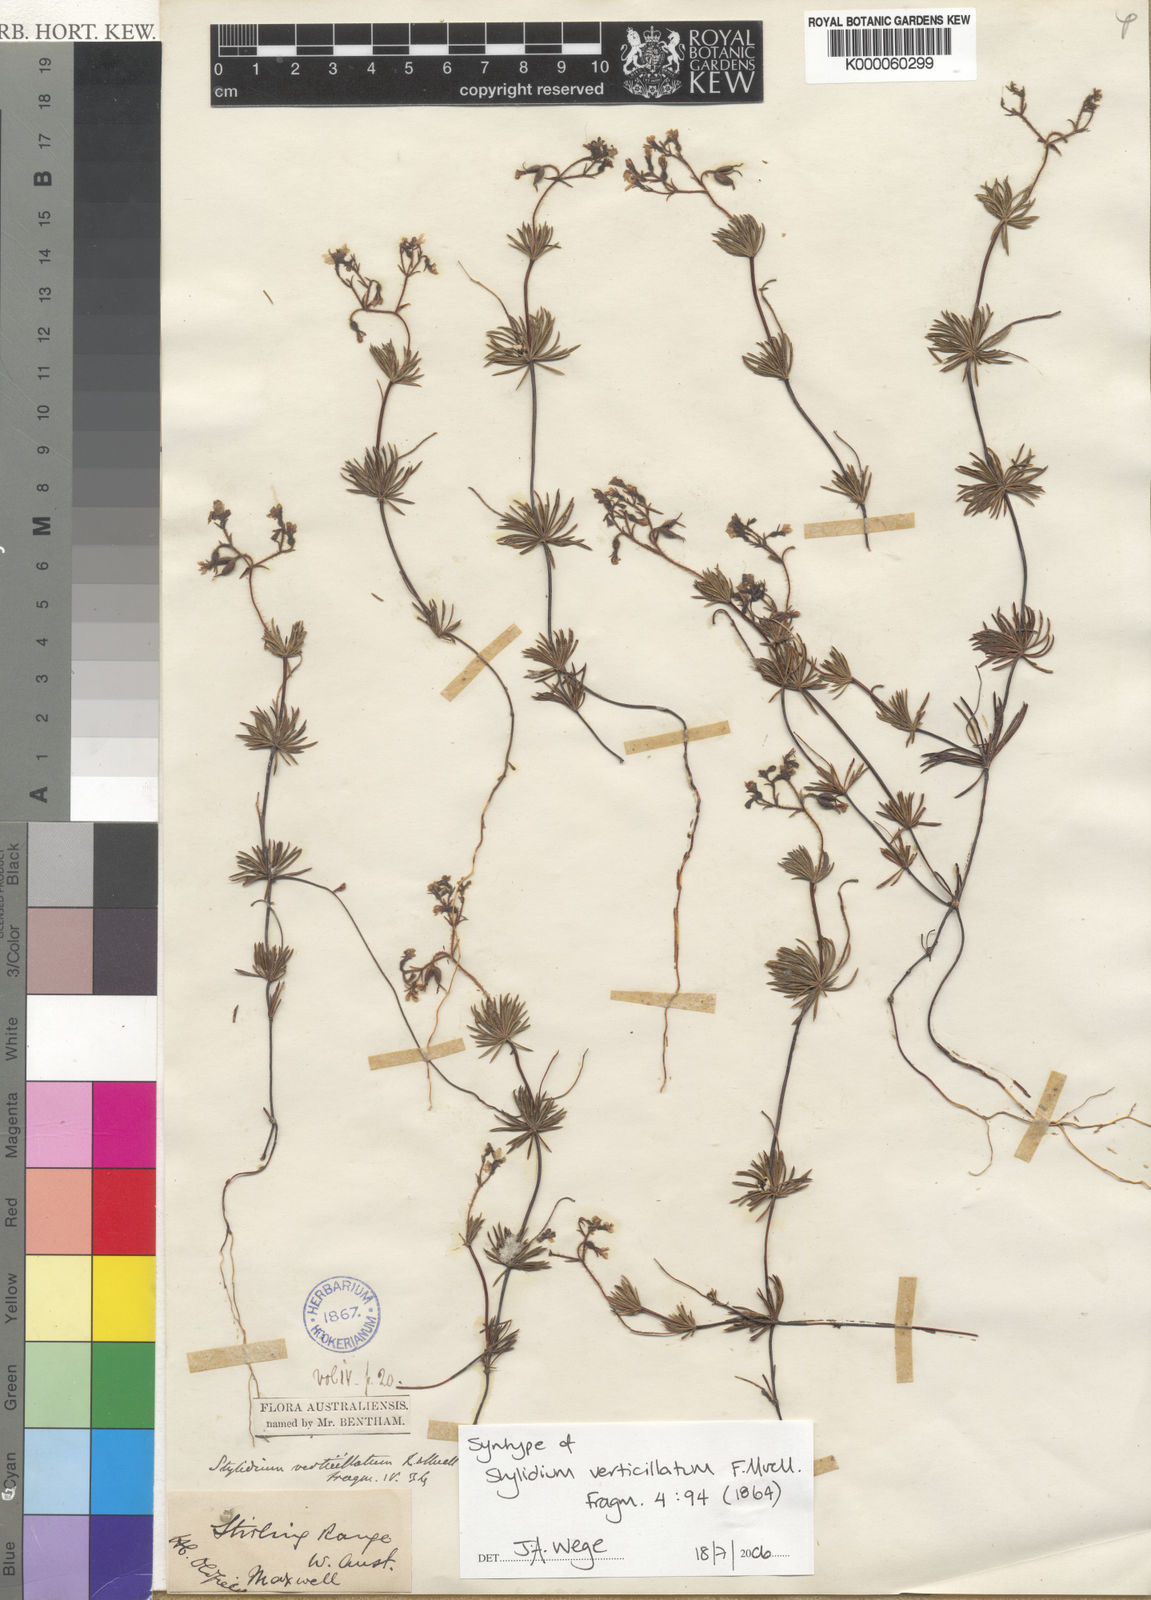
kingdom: Plantae
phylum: Tracheophyta
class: Magnoliopsida
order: Asterales
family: Stylidiaceae
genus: Stylidium
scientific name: Stylidium verticillatum
